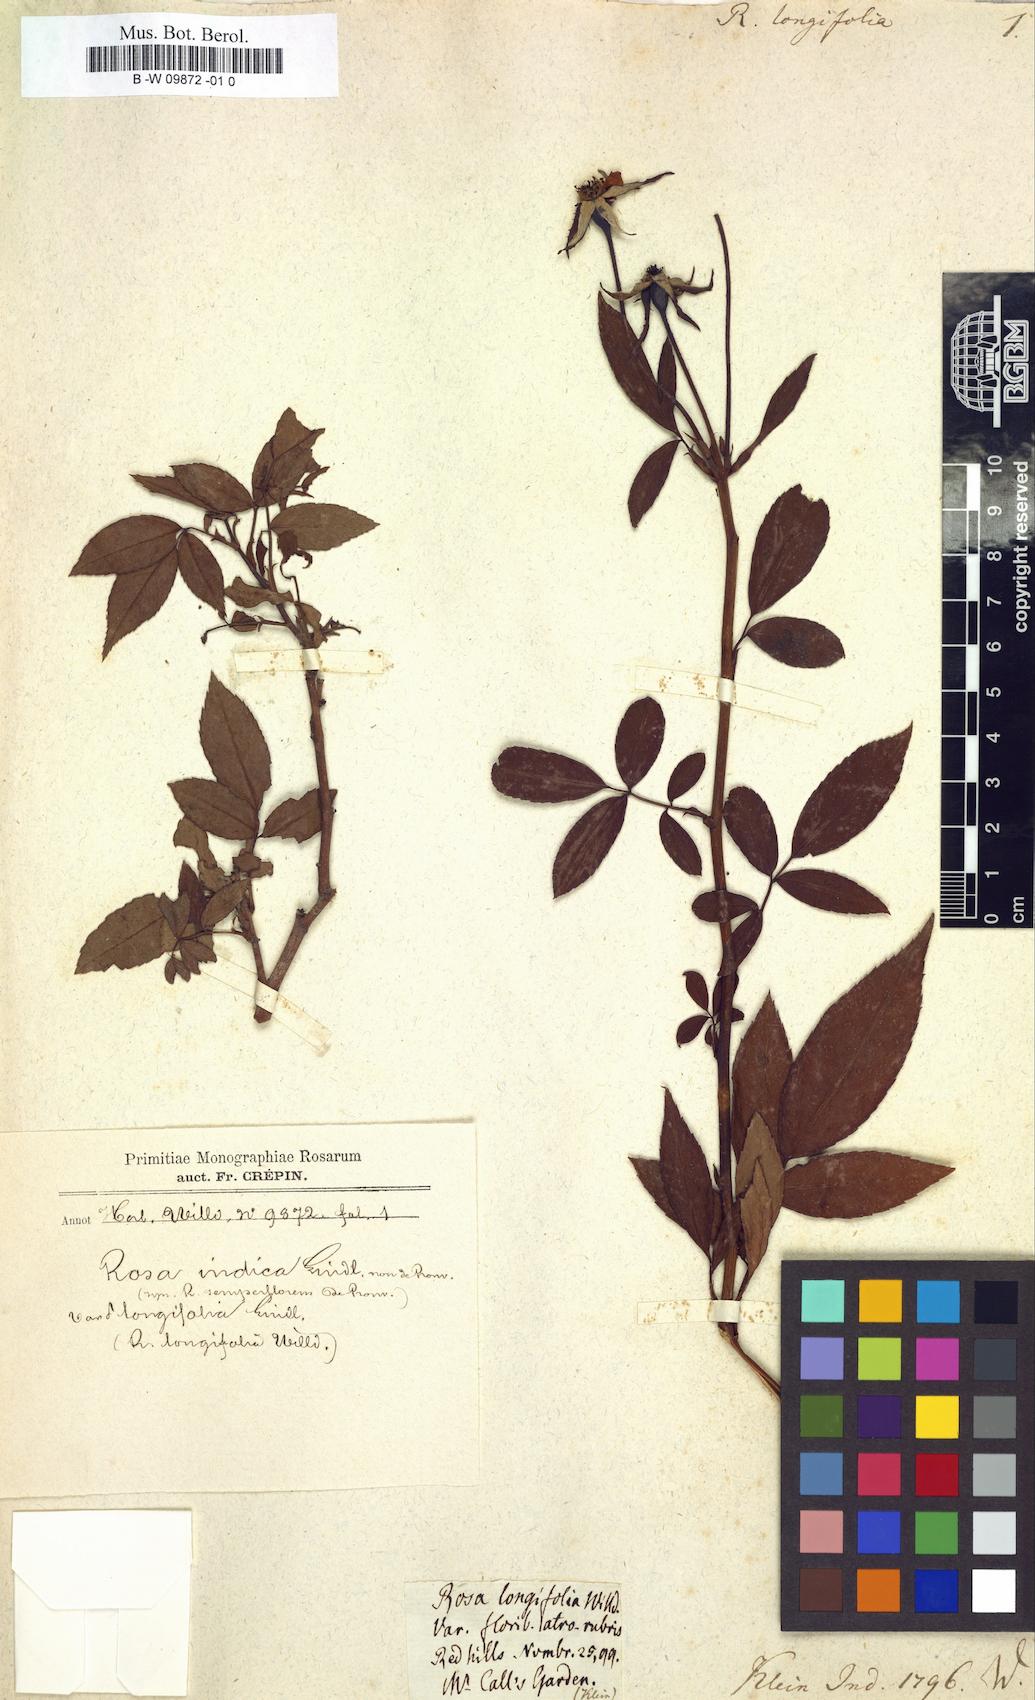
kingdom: Plantae
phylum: Tracheophyta
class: Magnoliopsida
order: Rosales
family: Rosaceae
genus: Rosa
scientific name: Rosa chinensis
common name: China rose
